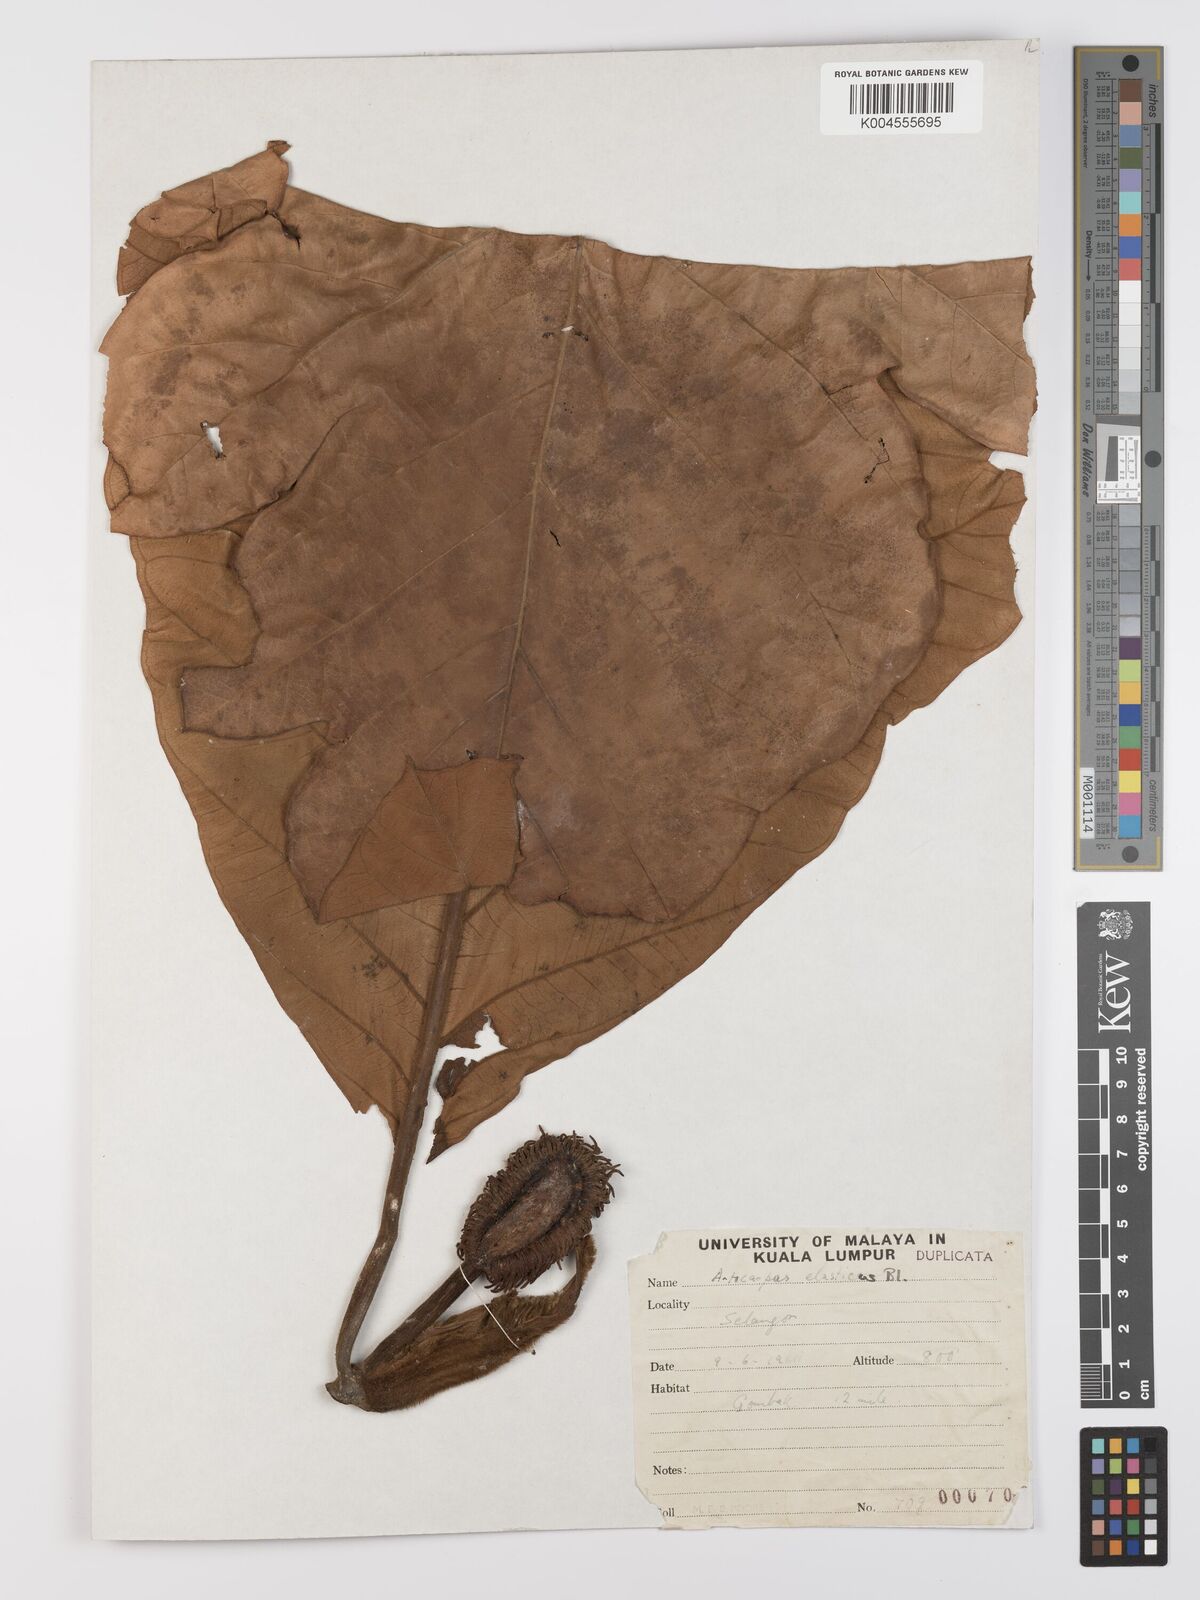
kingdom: Plantae
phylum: Tracheophyta
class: Magnoliopsida
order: Rosales
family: Moraceae
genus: Artocarpus
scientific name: Artocarpus elasticus
